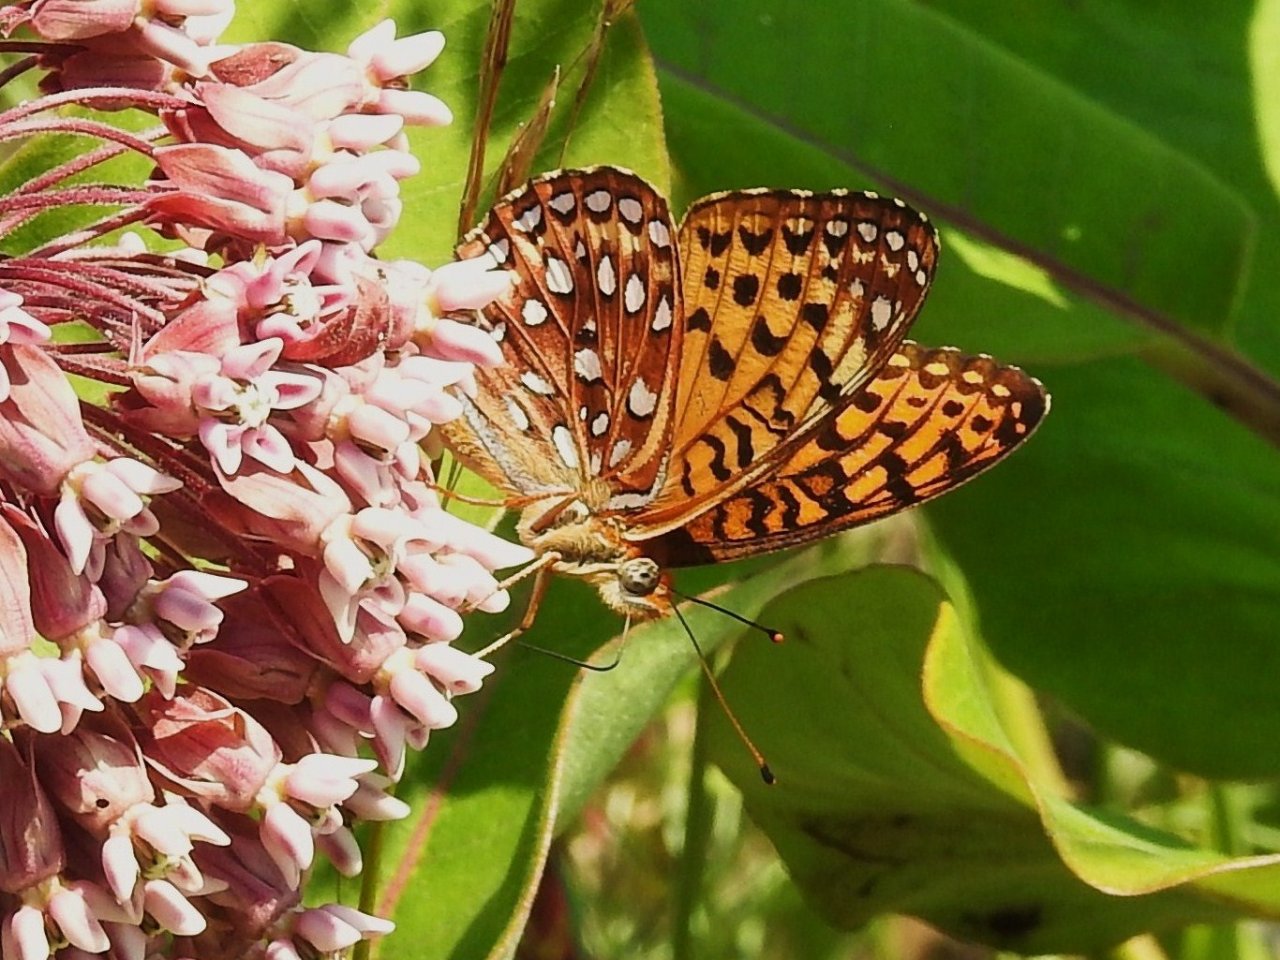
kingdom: Animalia
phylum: Arthropoda
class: Insecta
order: Lepidoptera
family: Nymphalidae
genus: Speyeria
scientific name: Speyeria atlantis
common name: Atlantis Fritillary
